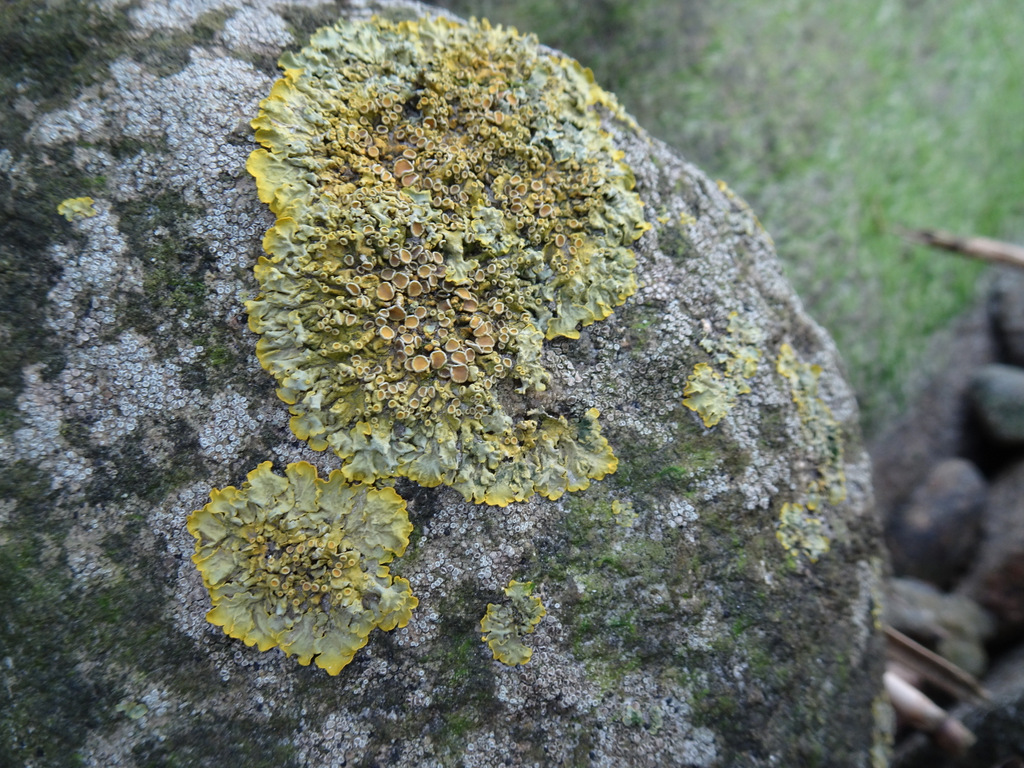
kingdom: Fungi
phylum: Ascomycota
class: Lecanoromycetes
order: Teloschistales
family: Teloschistaceae
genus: Xanthoria
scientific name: Xanthoria parietina
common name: almindelig væggelav
